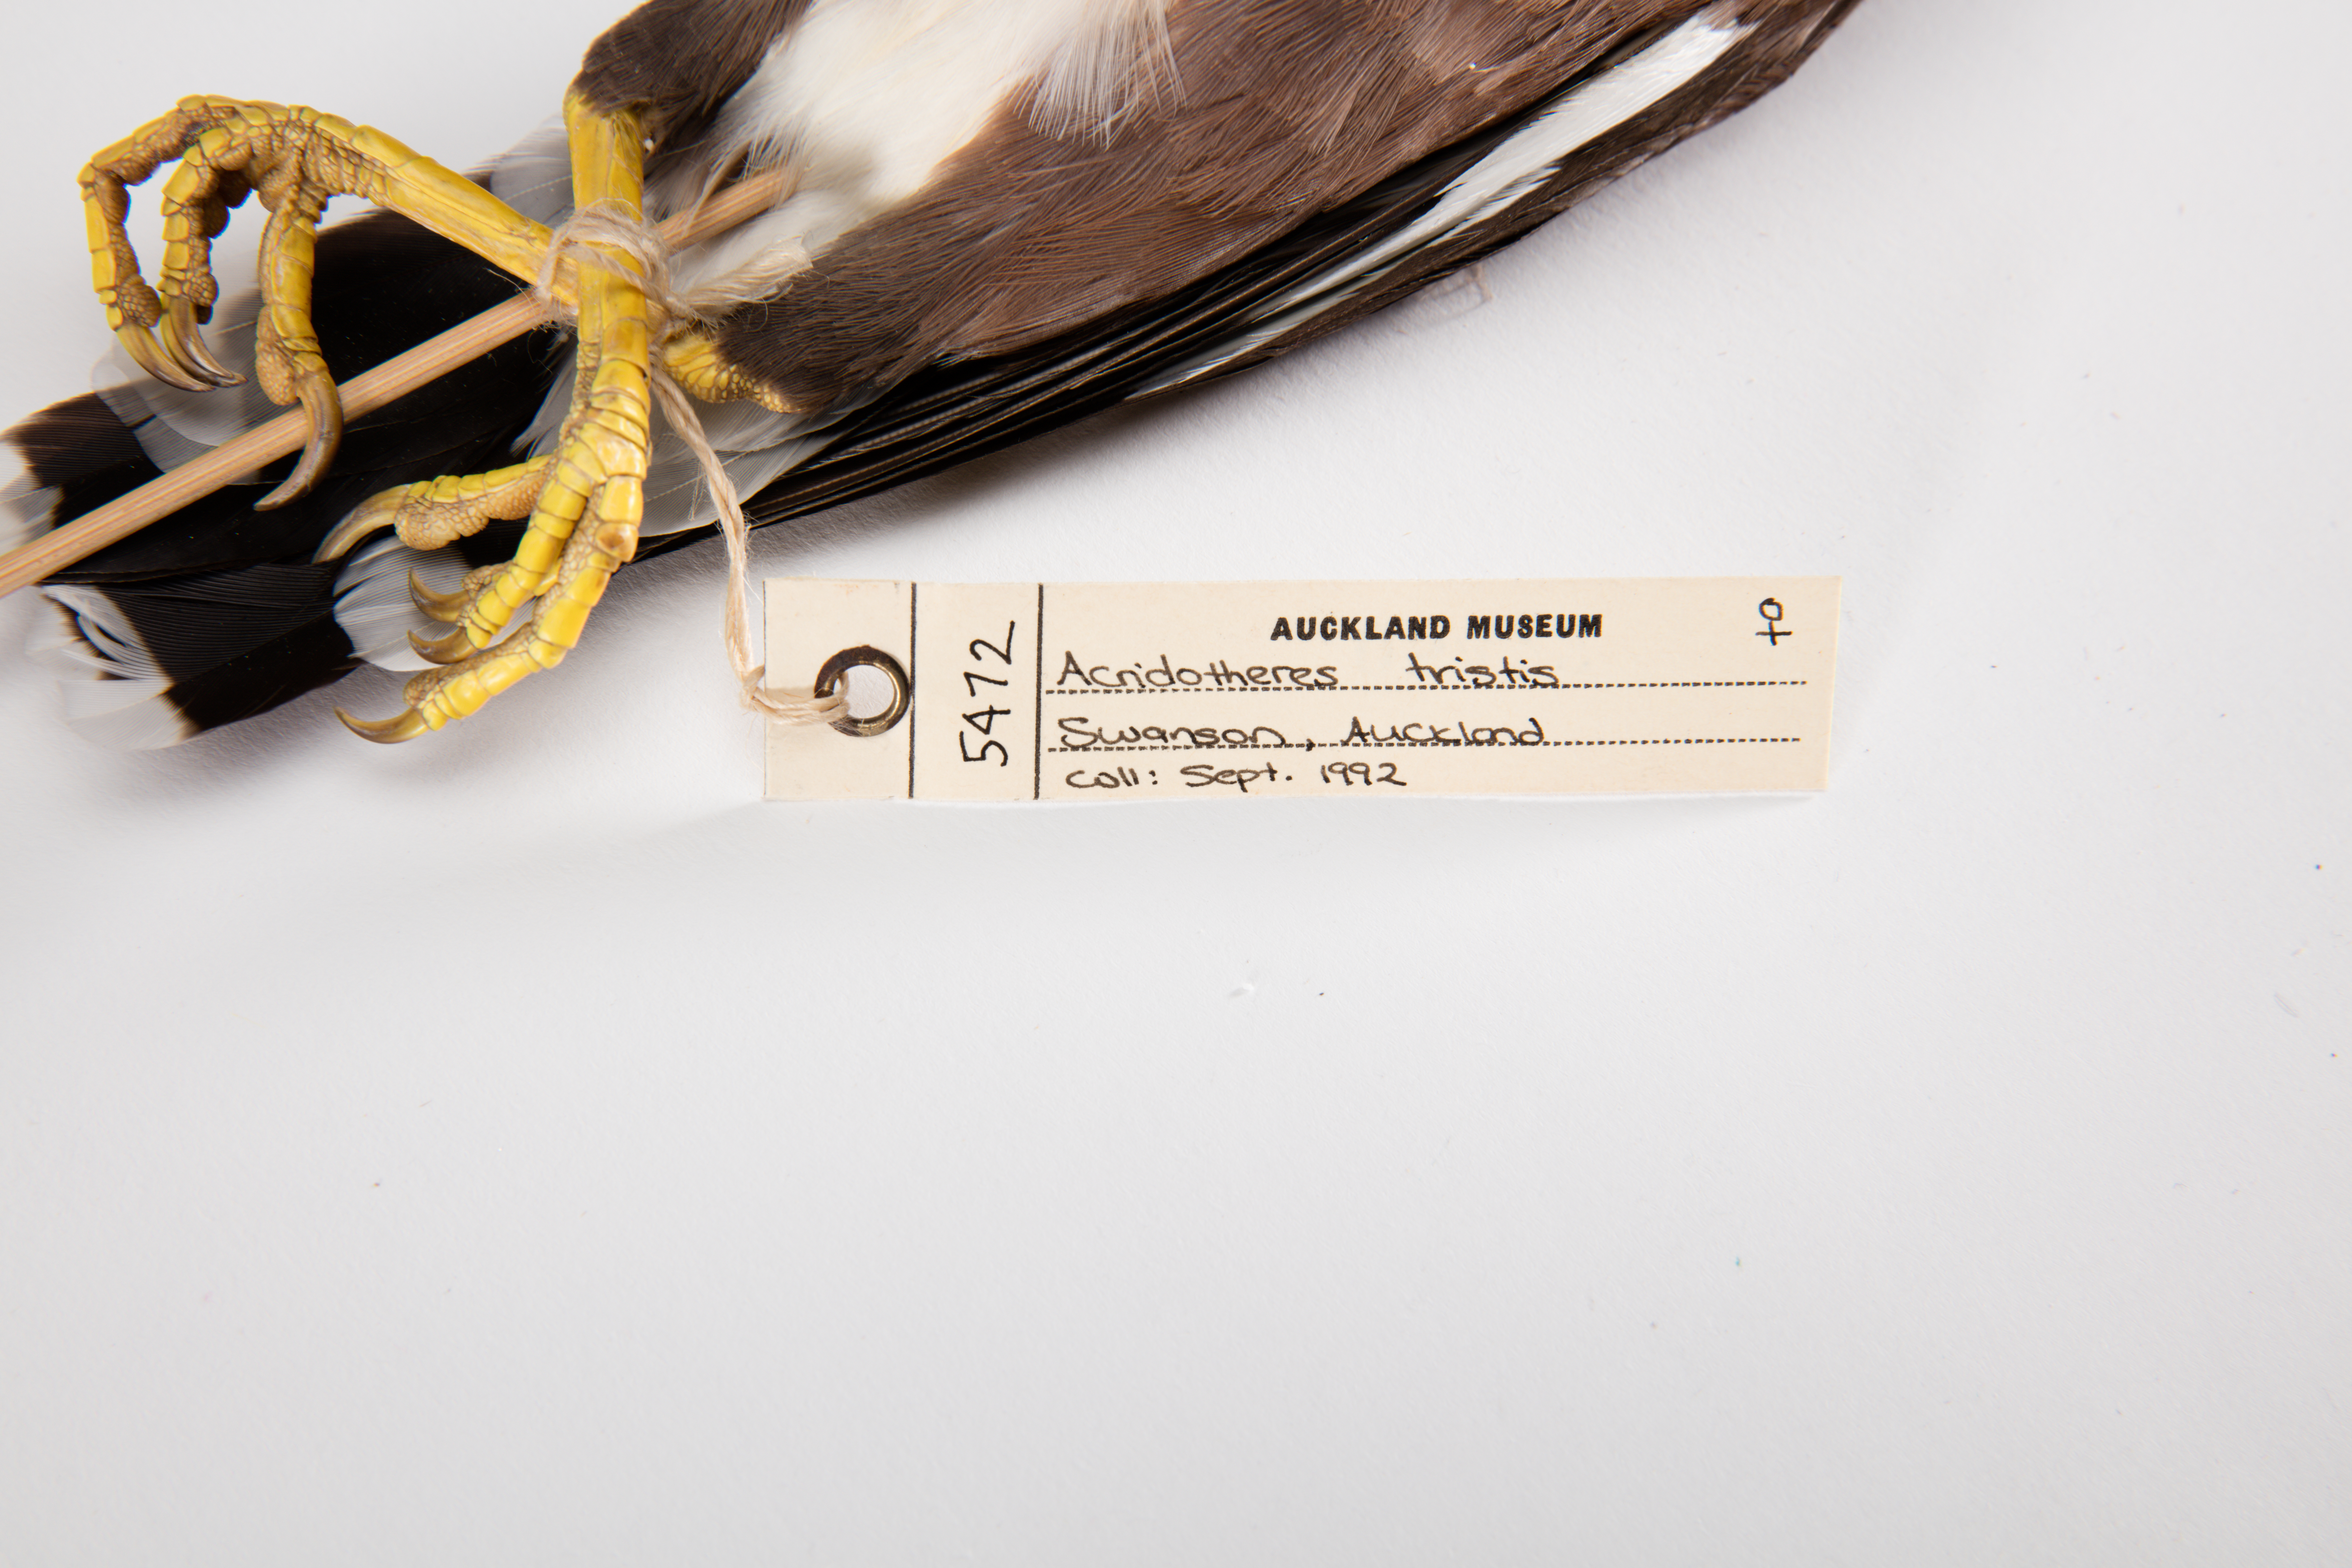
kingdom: Animalia
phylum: Chordata
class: Aves
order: Passeriformes
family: Sturnidae
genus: Acridotheres
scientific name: Acridotheres tristis
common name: Common myna
